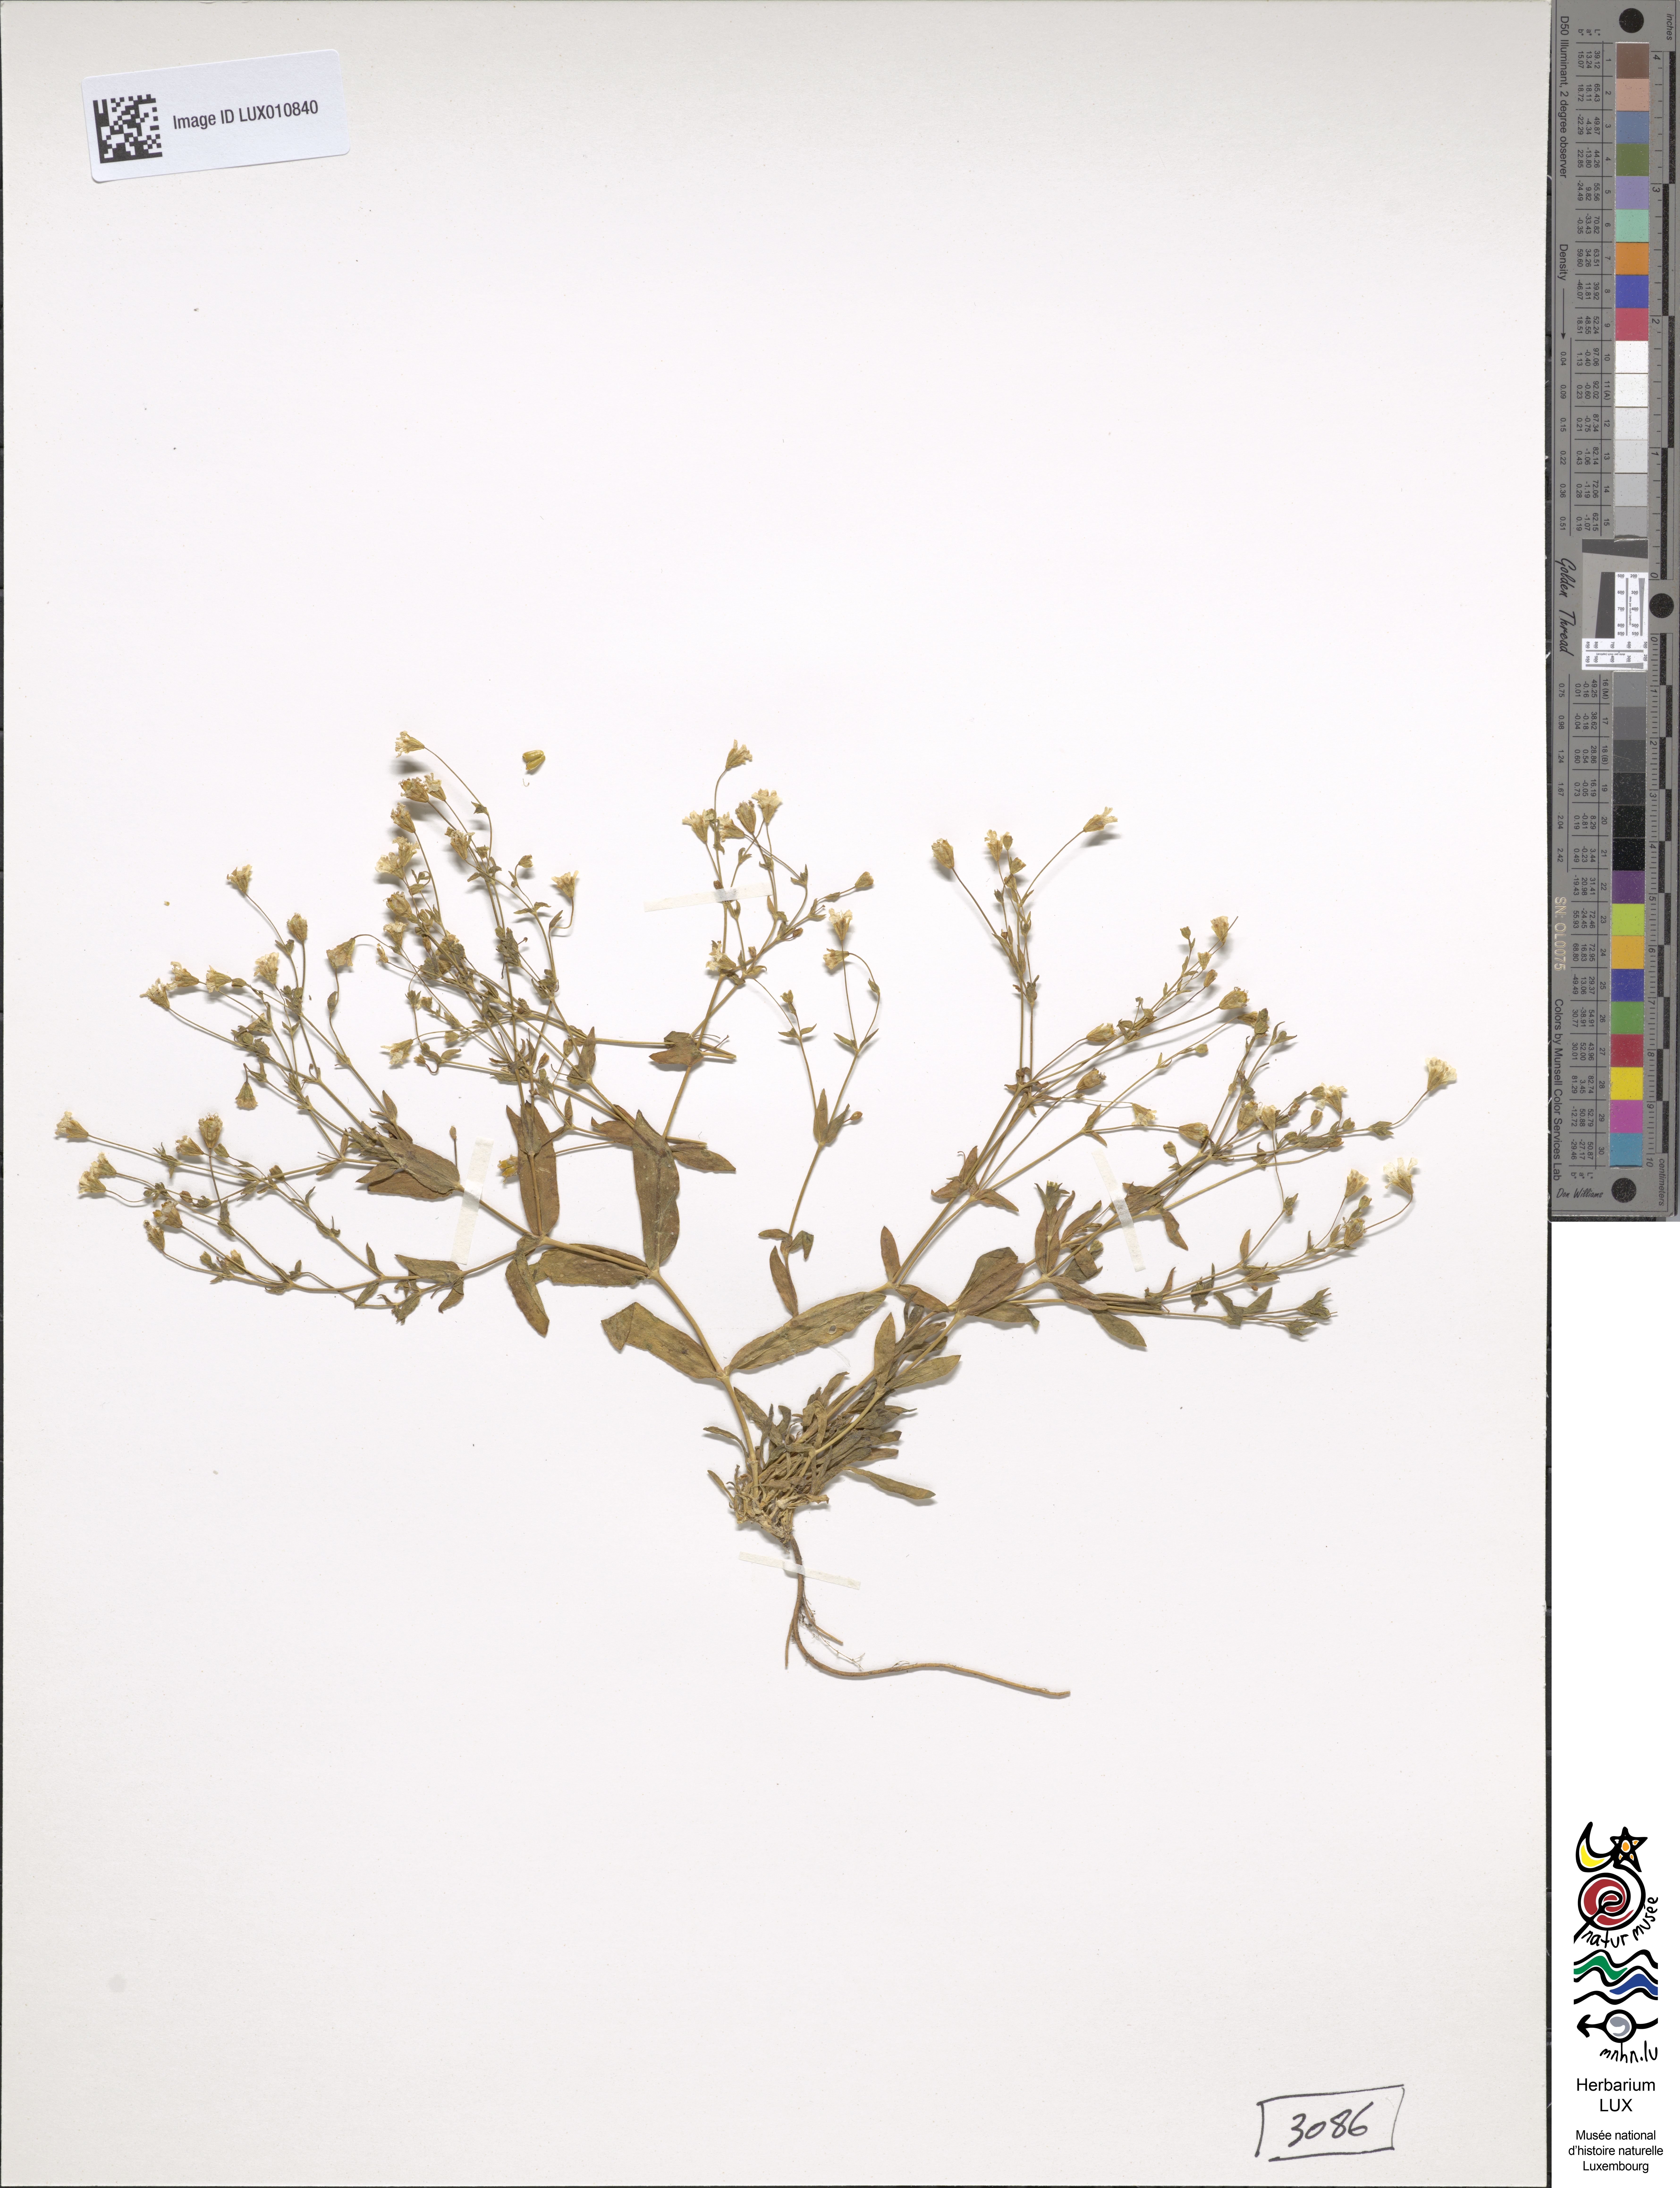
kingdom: Plantae
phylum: Tracheophyta
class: Magnoliopsida
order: Caryophyllales
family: Caryophyllaceae
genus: Atocion
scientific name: Atocion rupestre
